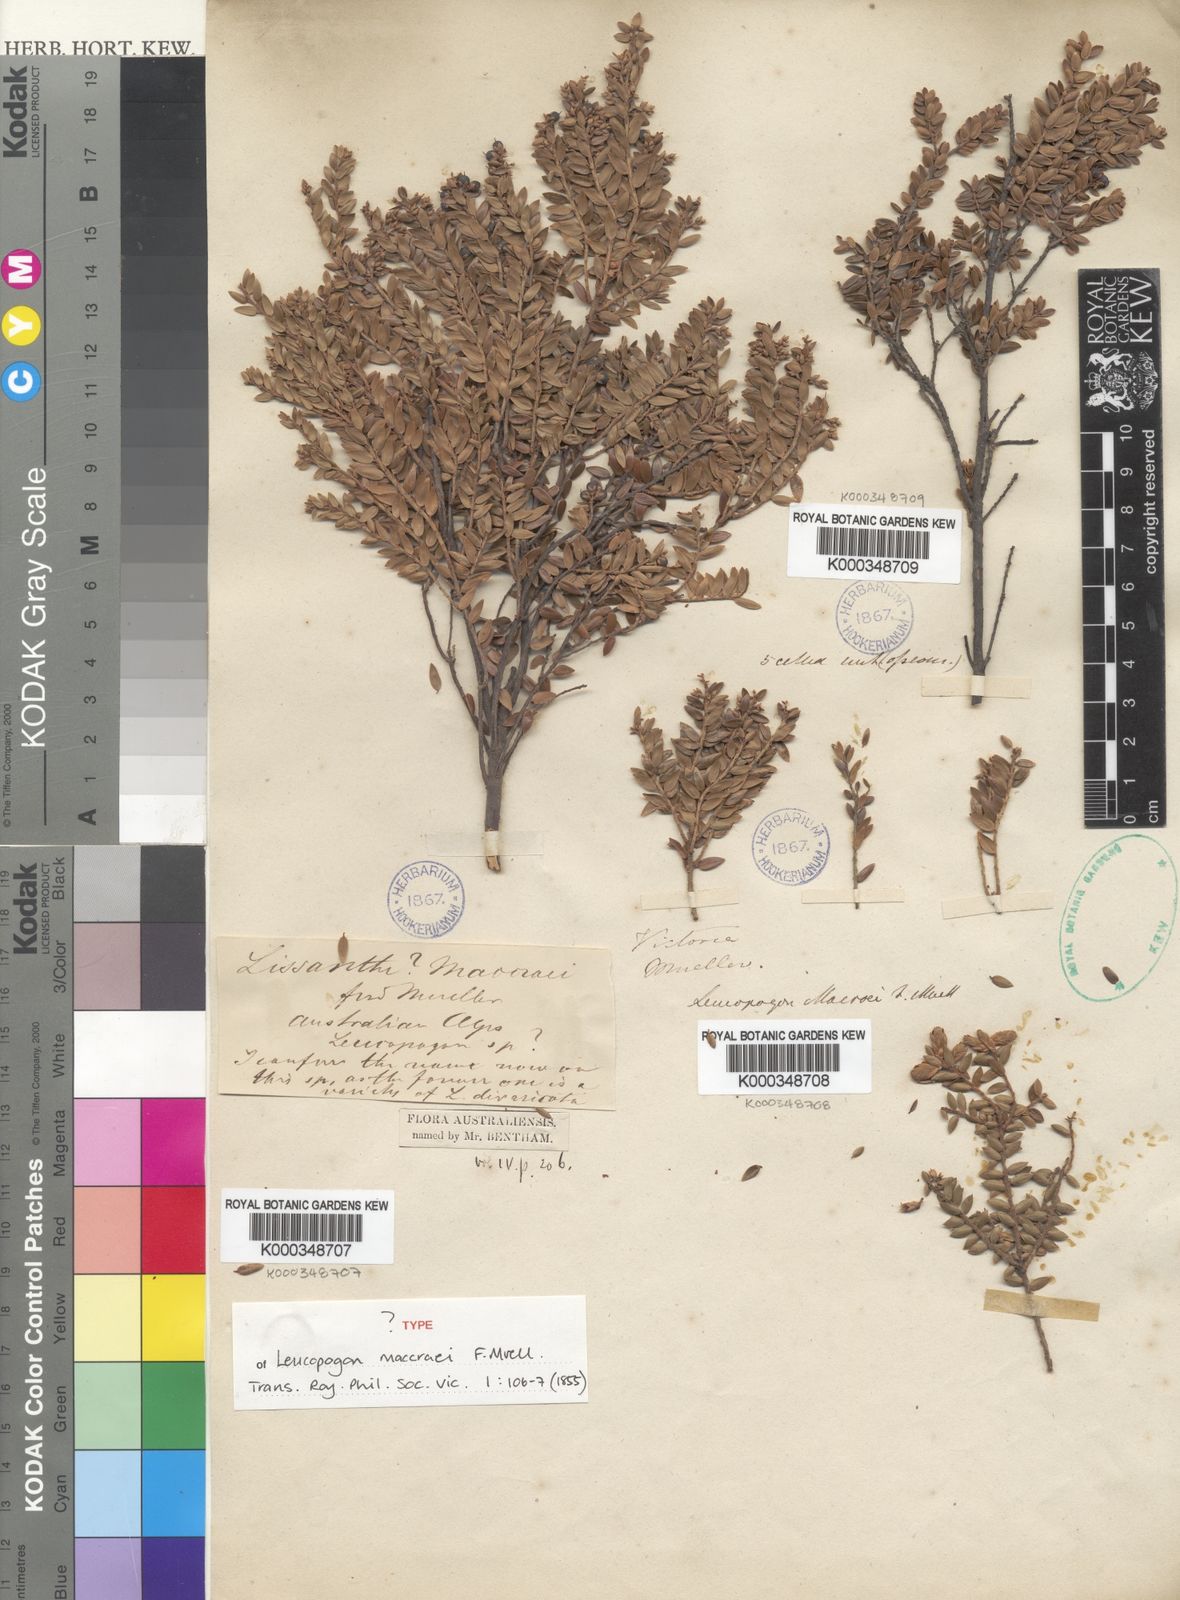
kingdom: Plantae
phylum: Tracheophyta
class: Magnoliopsida
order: Ericales
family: Ericaceae
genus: Acrothamnus
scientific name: Acrothamnus maccraei
